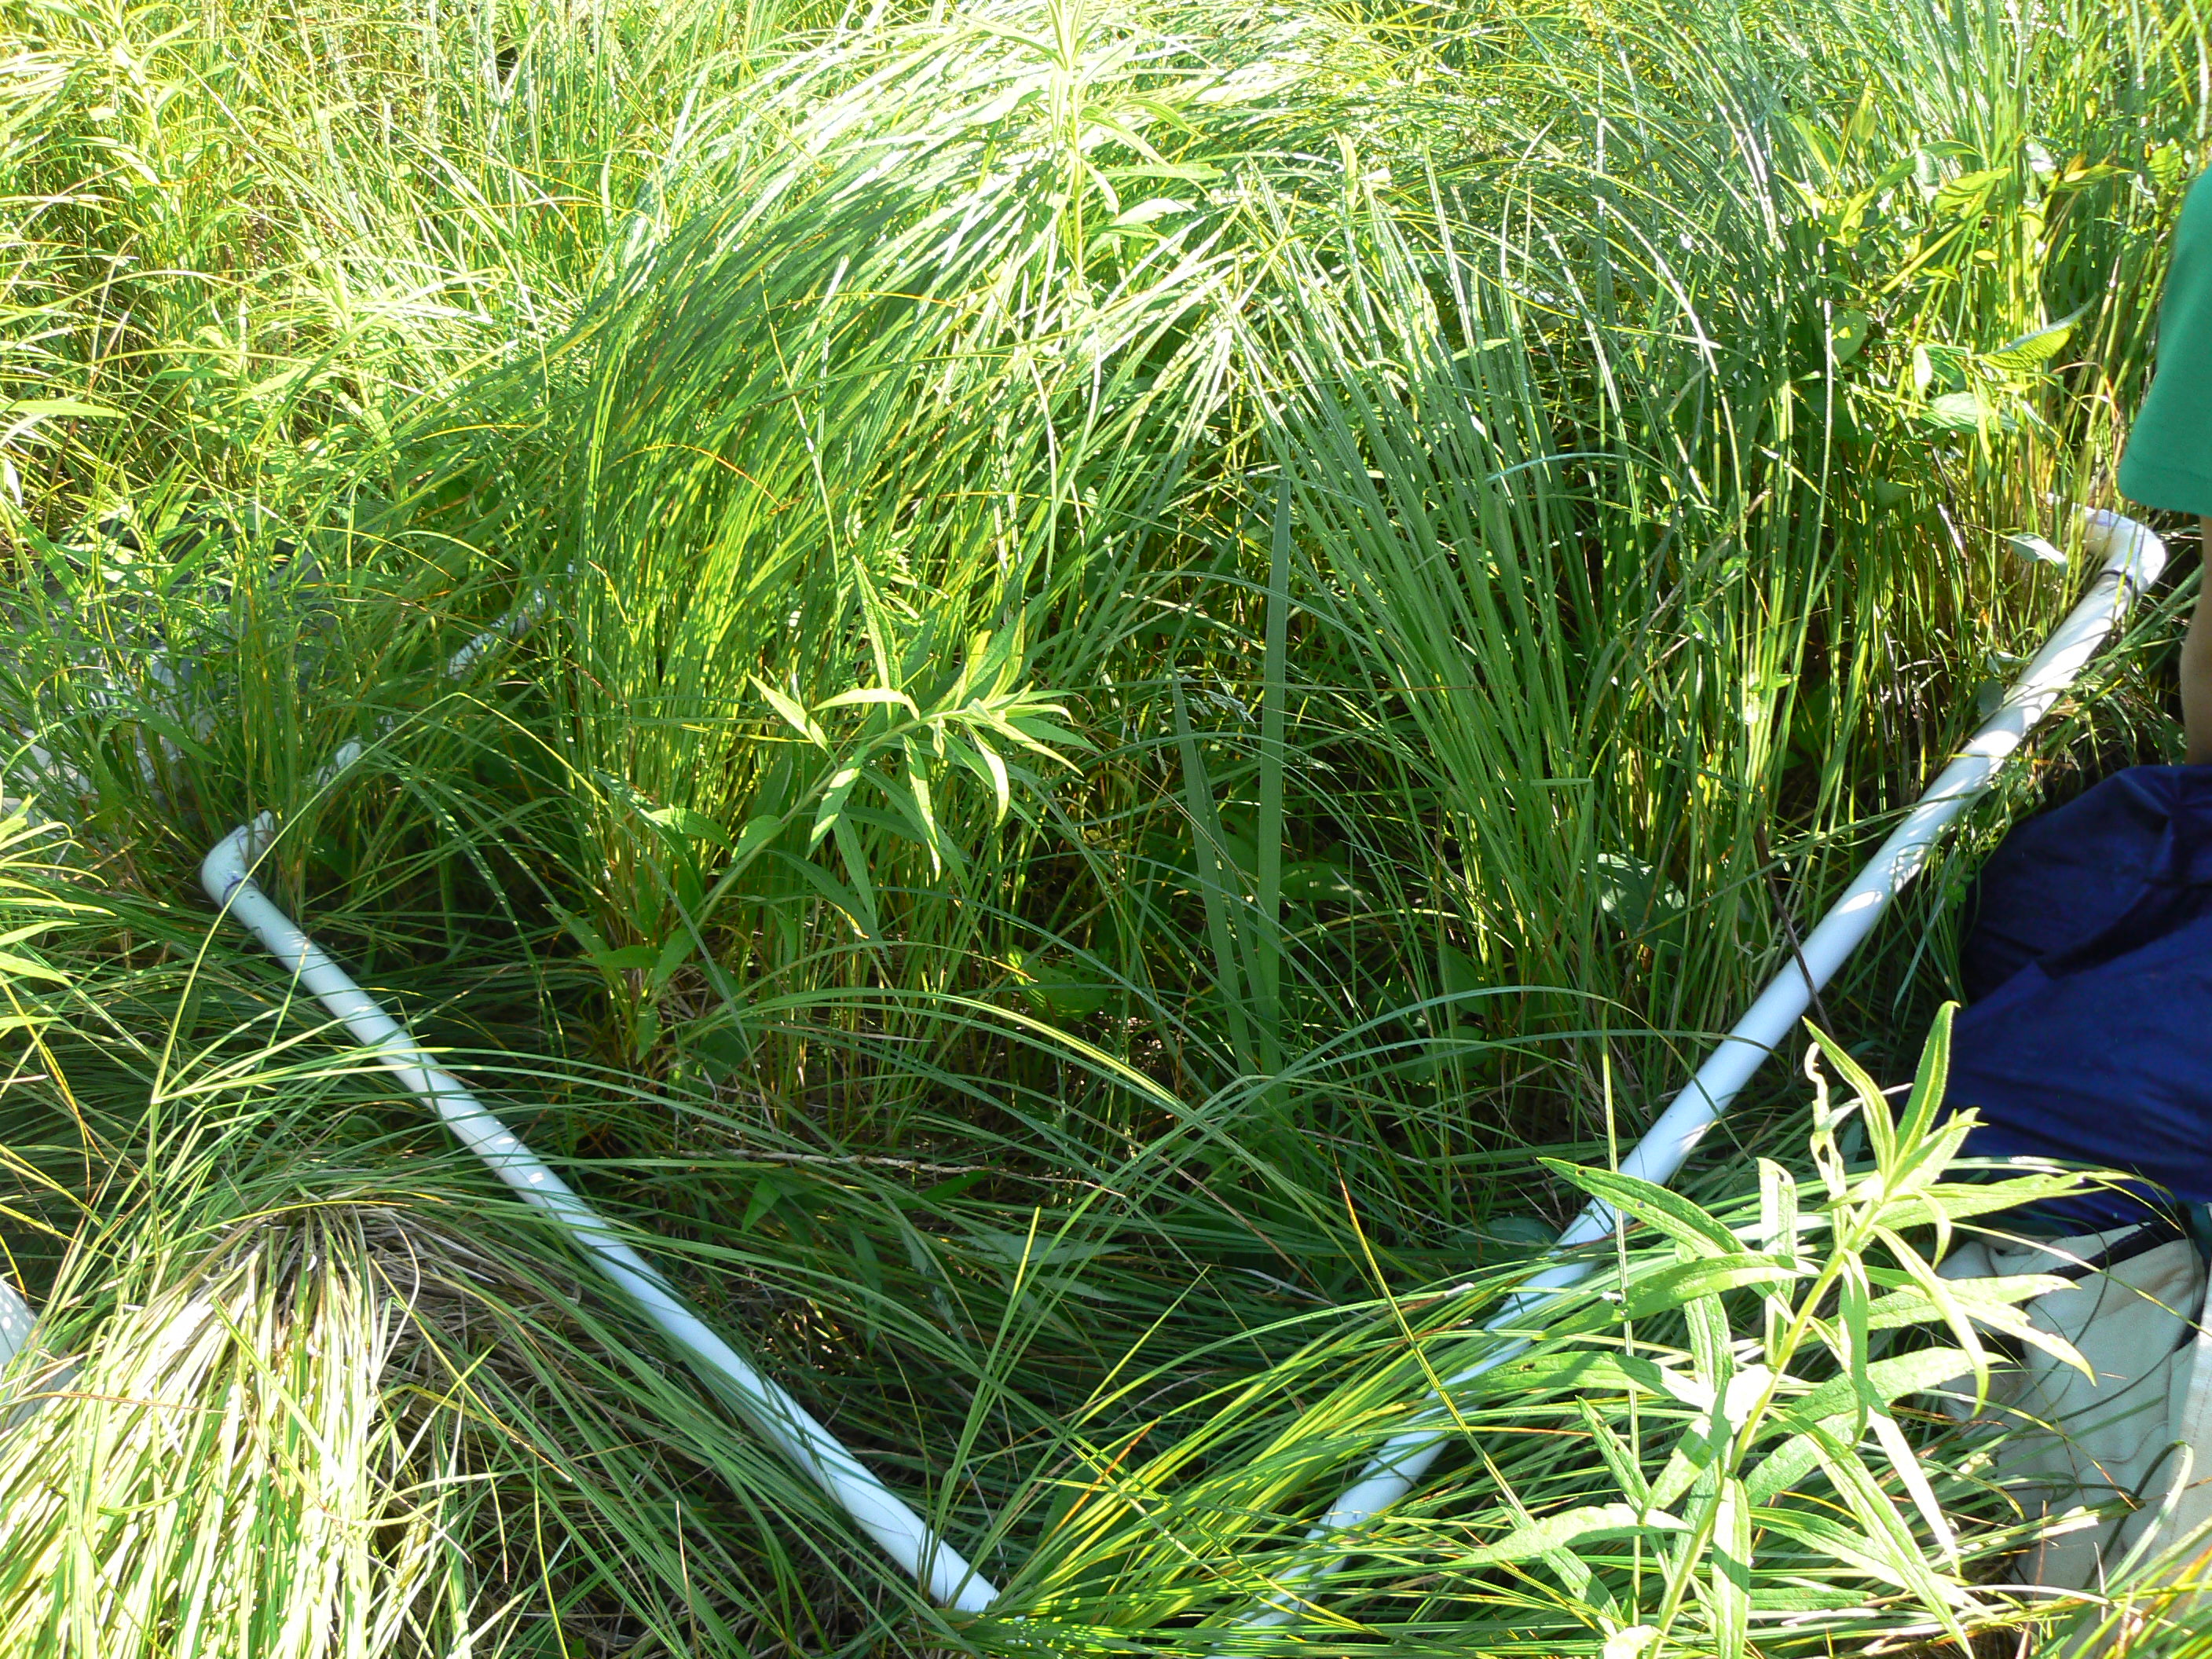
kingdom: Plantae
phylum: Tracheophyta
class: Magnoliopsida
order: Asterales
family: Asteraceae
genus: Eutrochium
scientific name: Eutrochium maculatum
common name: Spotted joe pye weed
